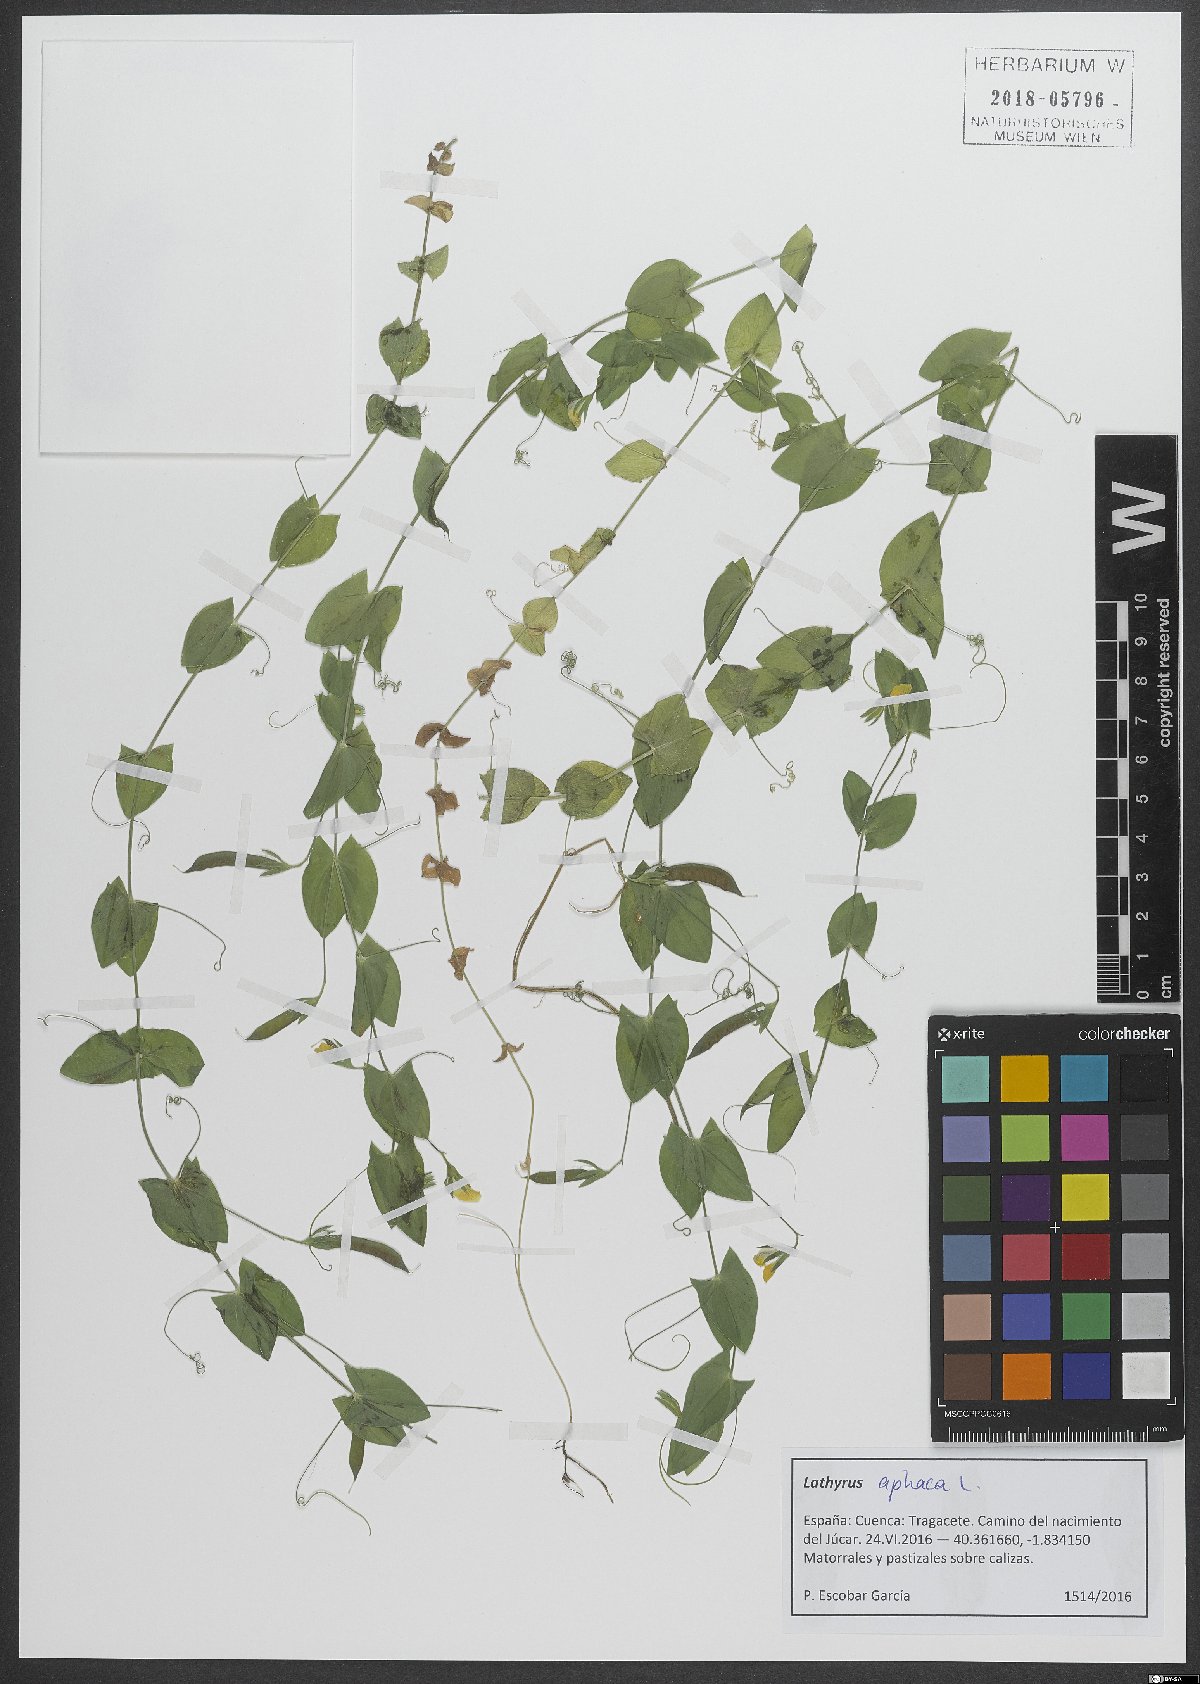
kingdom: Plantae
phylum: Tracheophyta
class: Magnoliopsida
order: Fabales
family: Fabaceae
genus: Lathyrus
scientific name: Lathyrus aphaca
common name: Yellow vetchling
